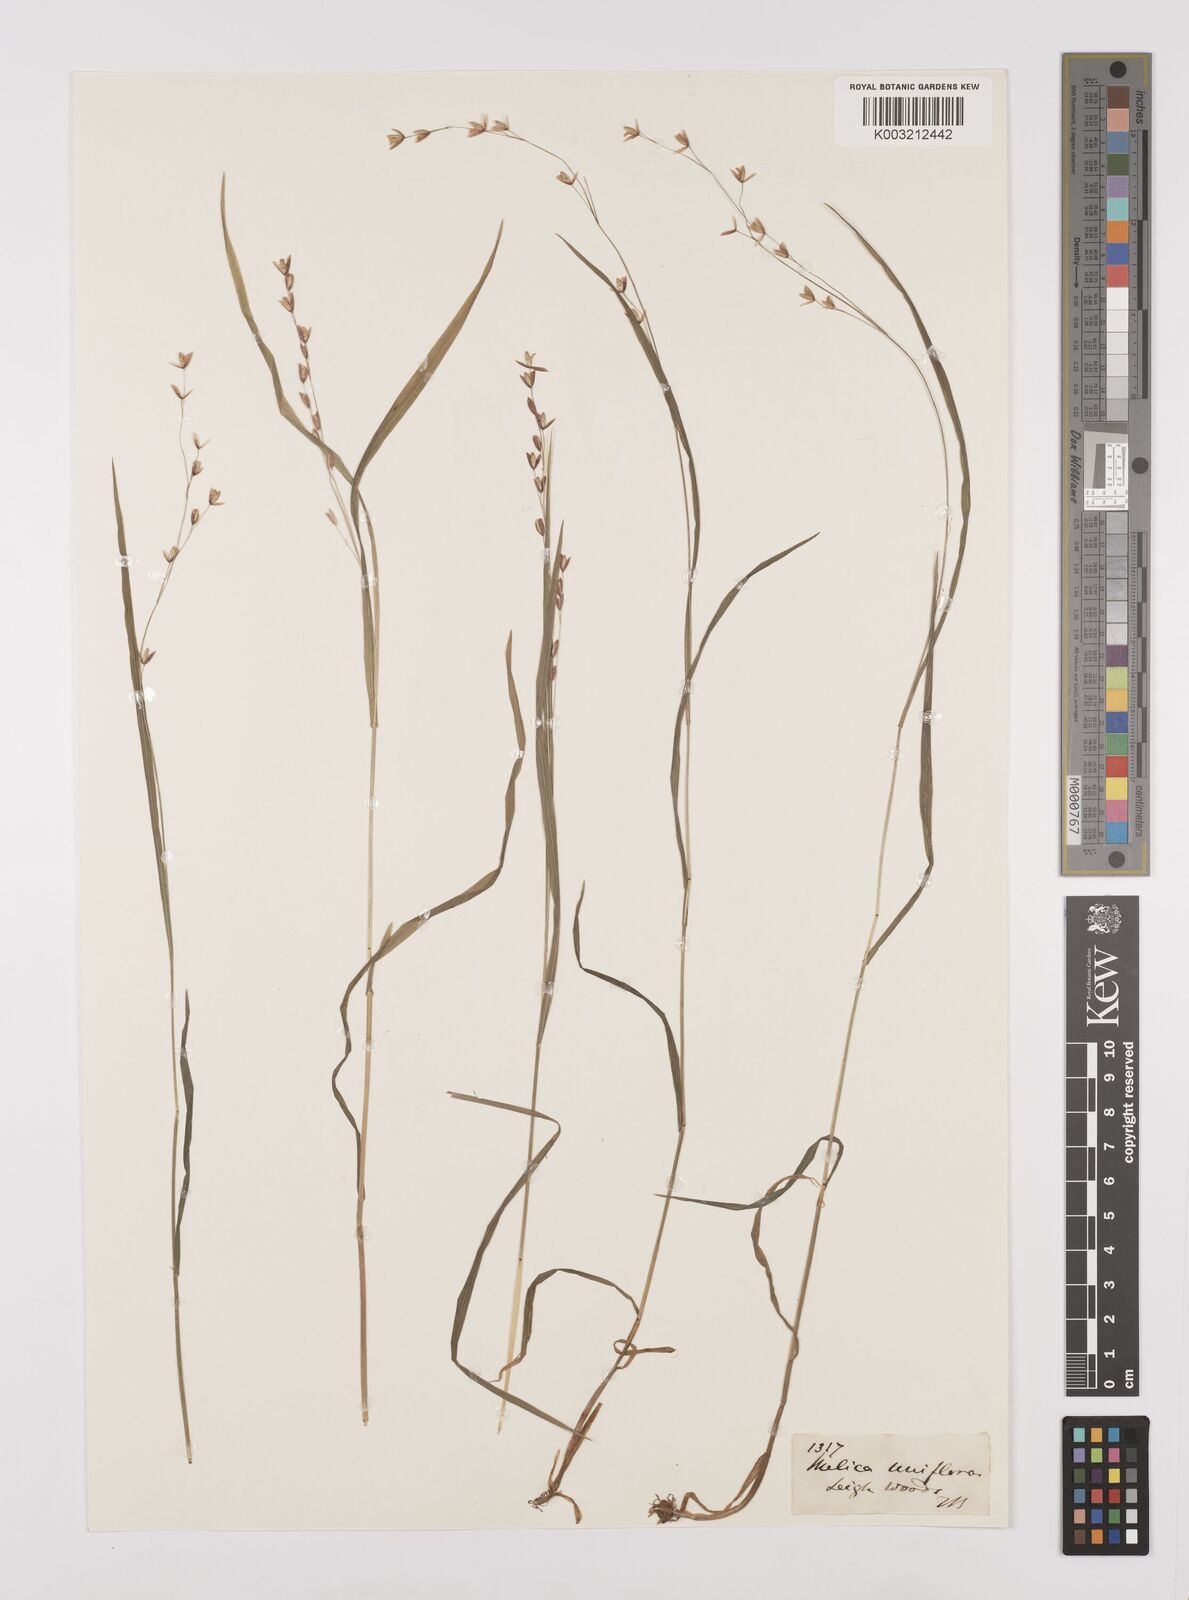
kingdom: Plantae
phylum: Tracheophyta
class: Liliopsida
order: Poales
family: Poaceae
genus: Melica
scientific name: Melica uniflora
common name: Wood melick
